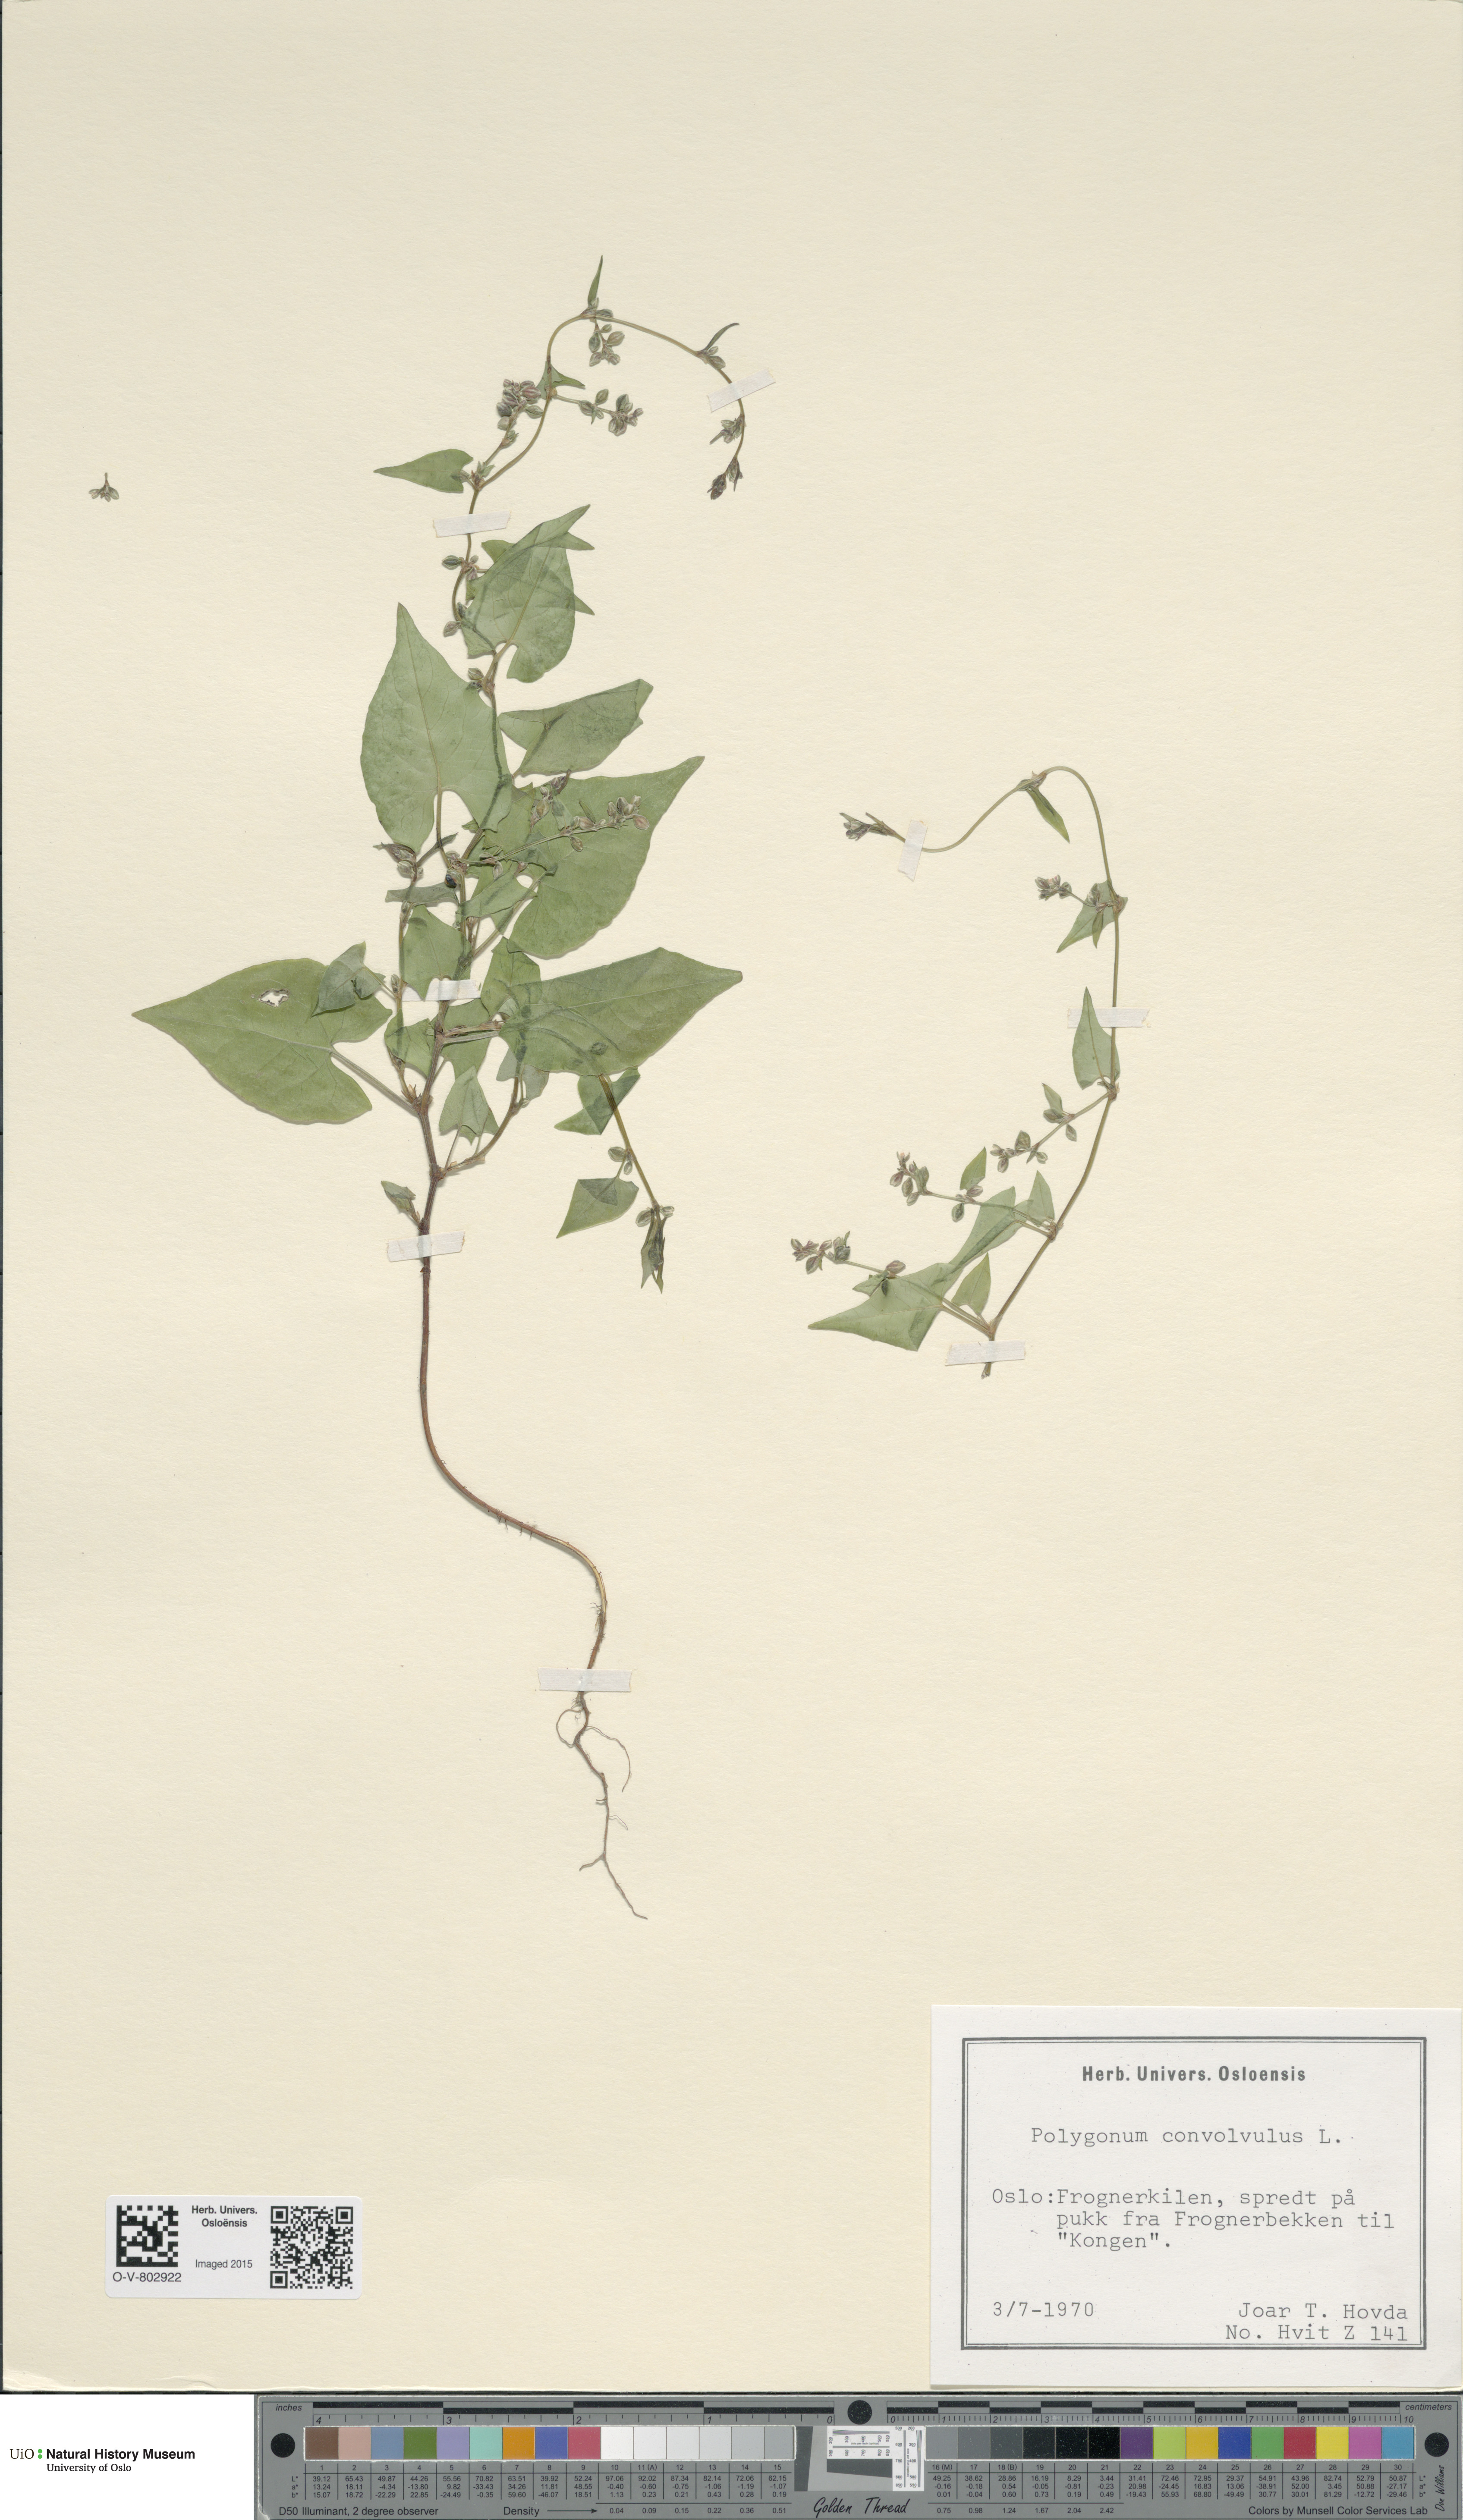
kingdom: Plantae
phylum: Tracheophyta
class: Magnoliopsida
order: Caryophyllales
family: Polygonaceae
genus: Fallopia
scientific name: Fallopia convolvulus
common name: Black bindweed
